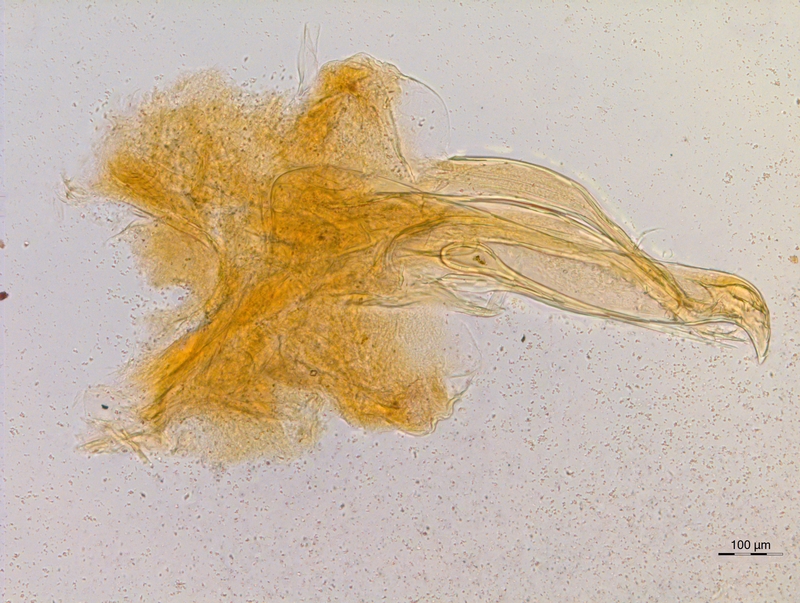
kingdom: Animalia
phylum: Arthropoda
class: Diplopoda
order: Chordeumatida
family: Chordeumatidae
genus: Orthochordeumella
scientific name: Orthochordeumella fulva
